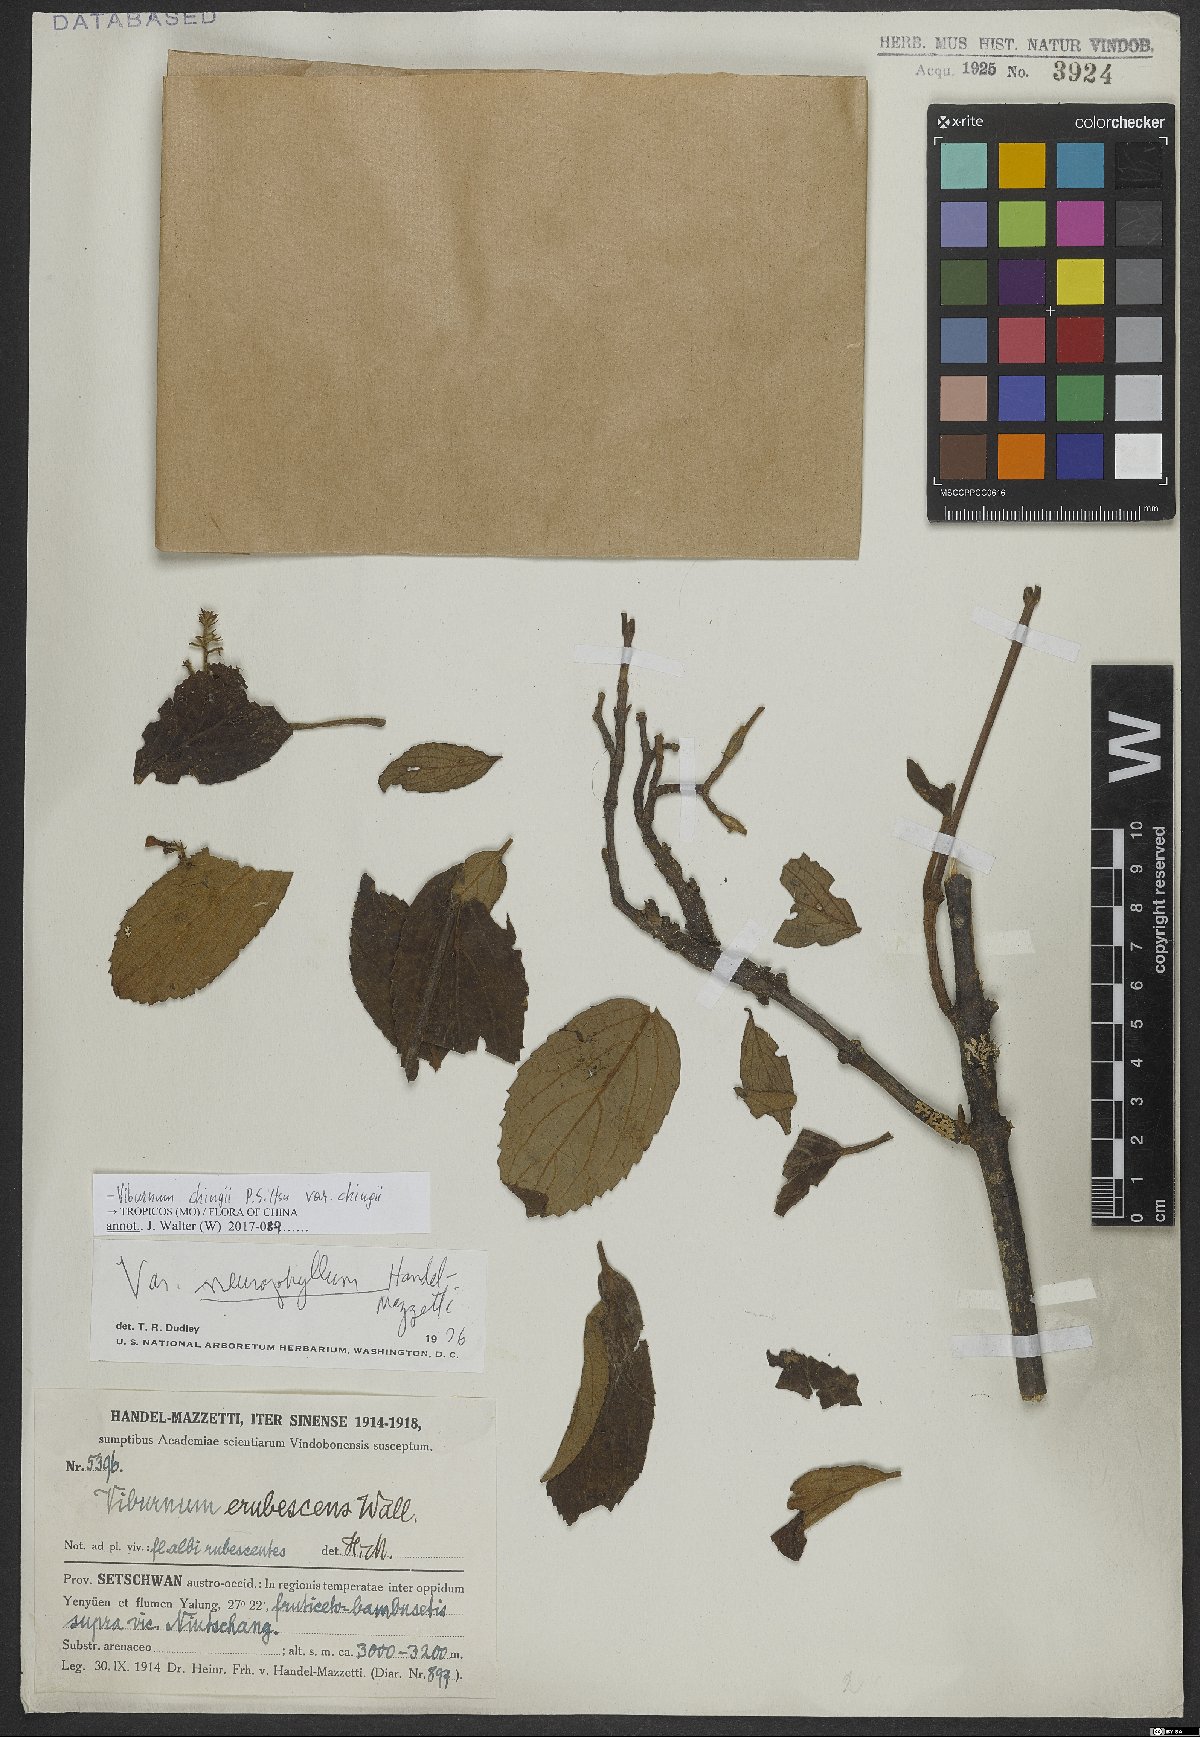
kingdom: Plantae
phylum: Tracheophyta
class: Magnoliopsida
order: Dipsacales
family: Viburnaceae
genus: Viburnum
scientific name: Viburnum chingii
